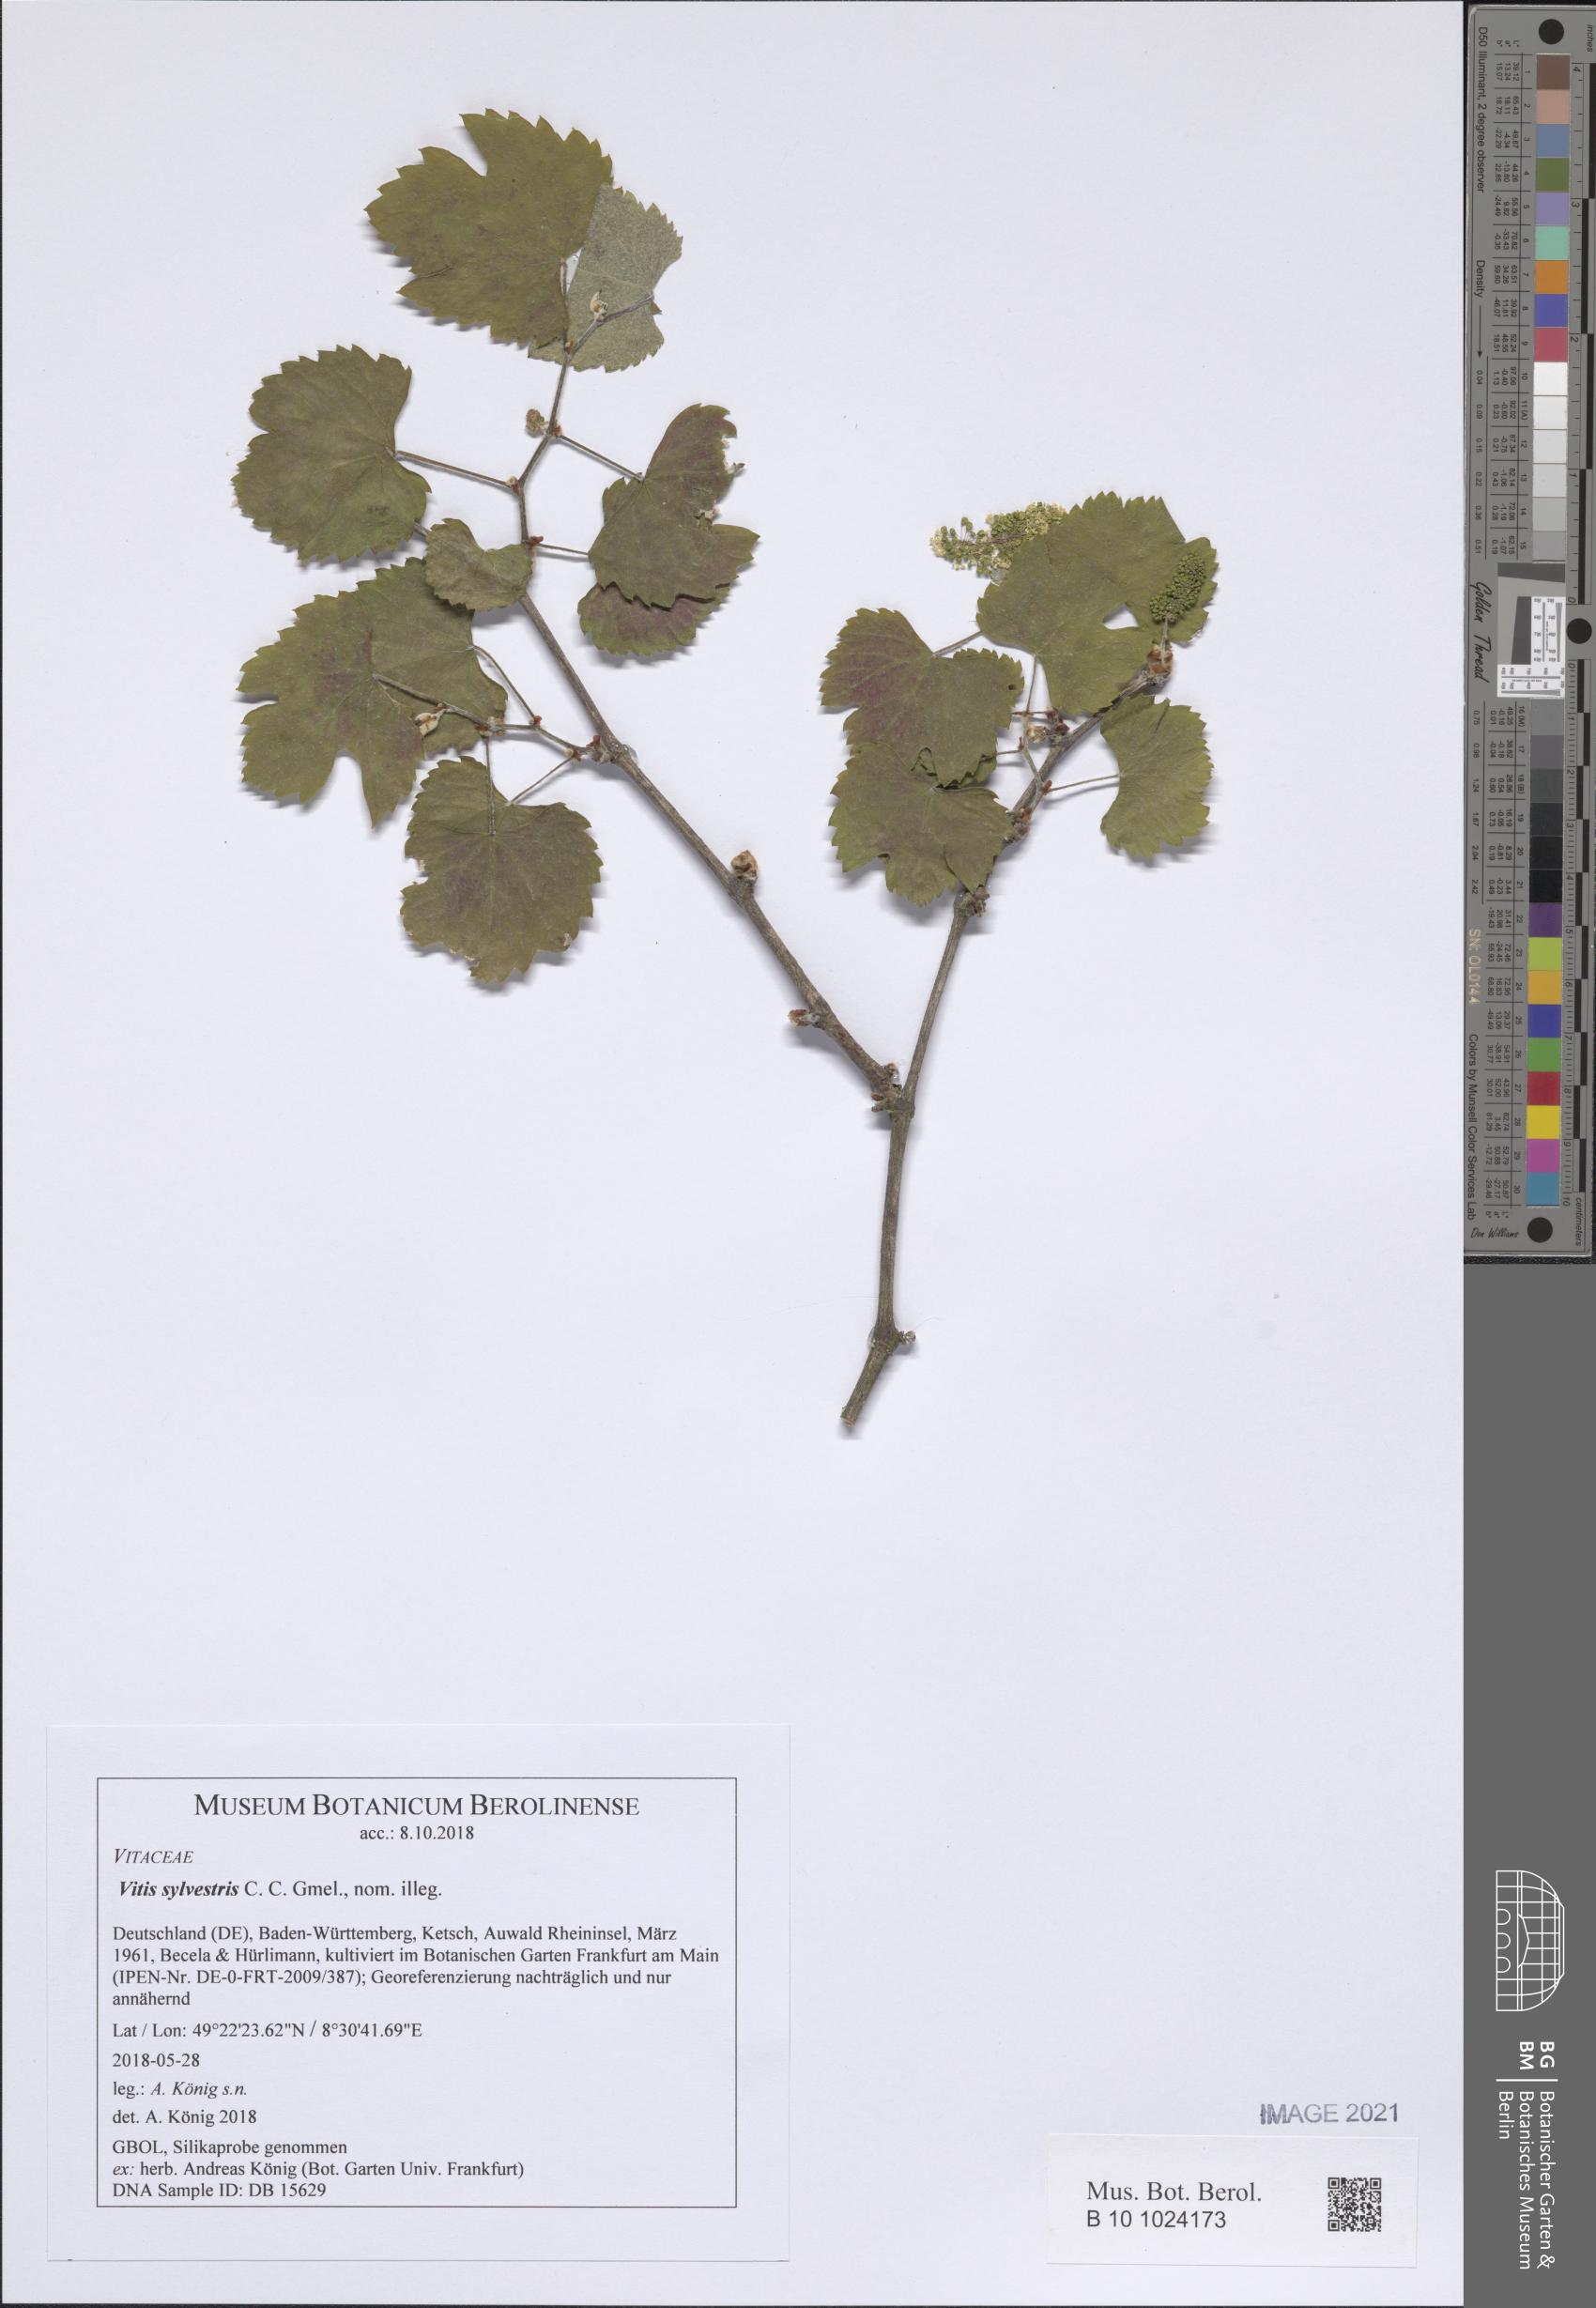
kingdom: Plantae
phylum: Tracheophyta
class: Magnoliopsida
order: Vitales
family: Vitaceae
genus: Vitis
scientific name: Vitis gmelinii
